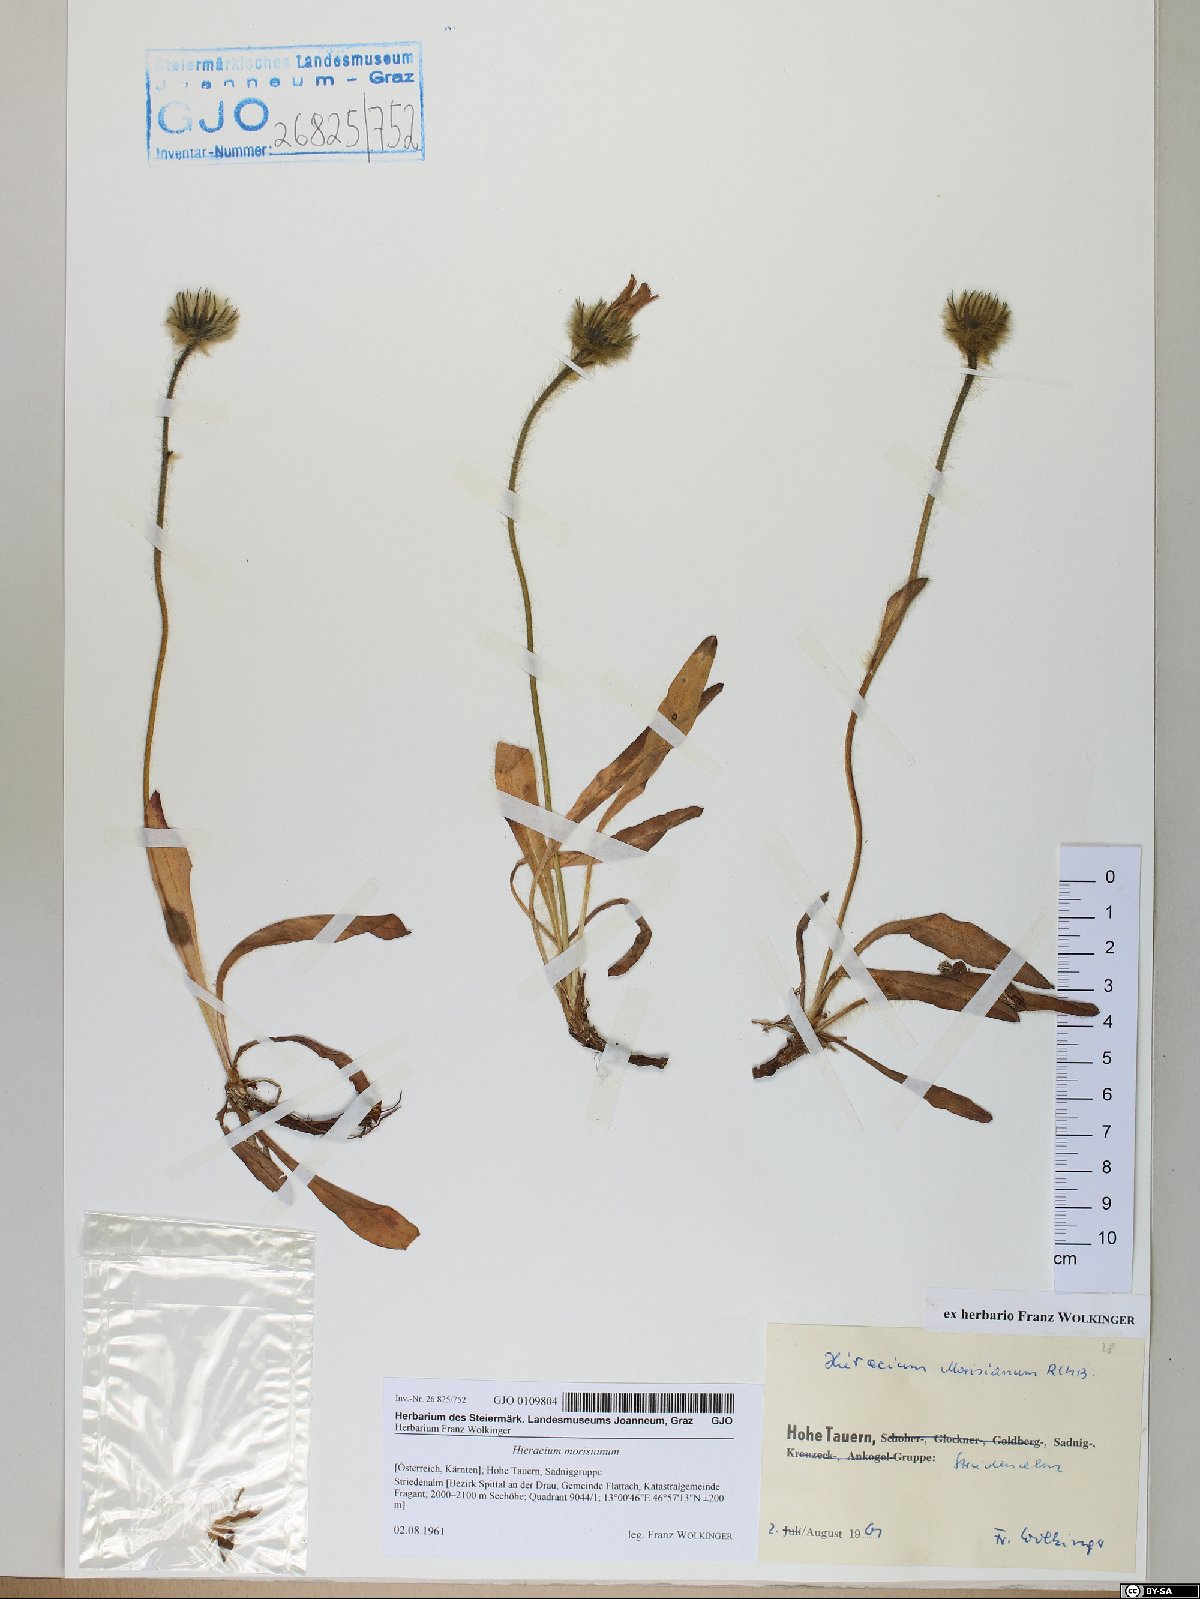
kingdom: Plantae
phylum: Tracheophyta
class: Magnoliopsida
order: Asterales
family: Asteraceae
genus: Hieracium
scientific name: Hieracium pilosum
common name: Fimbriate-pitted hawkweed
